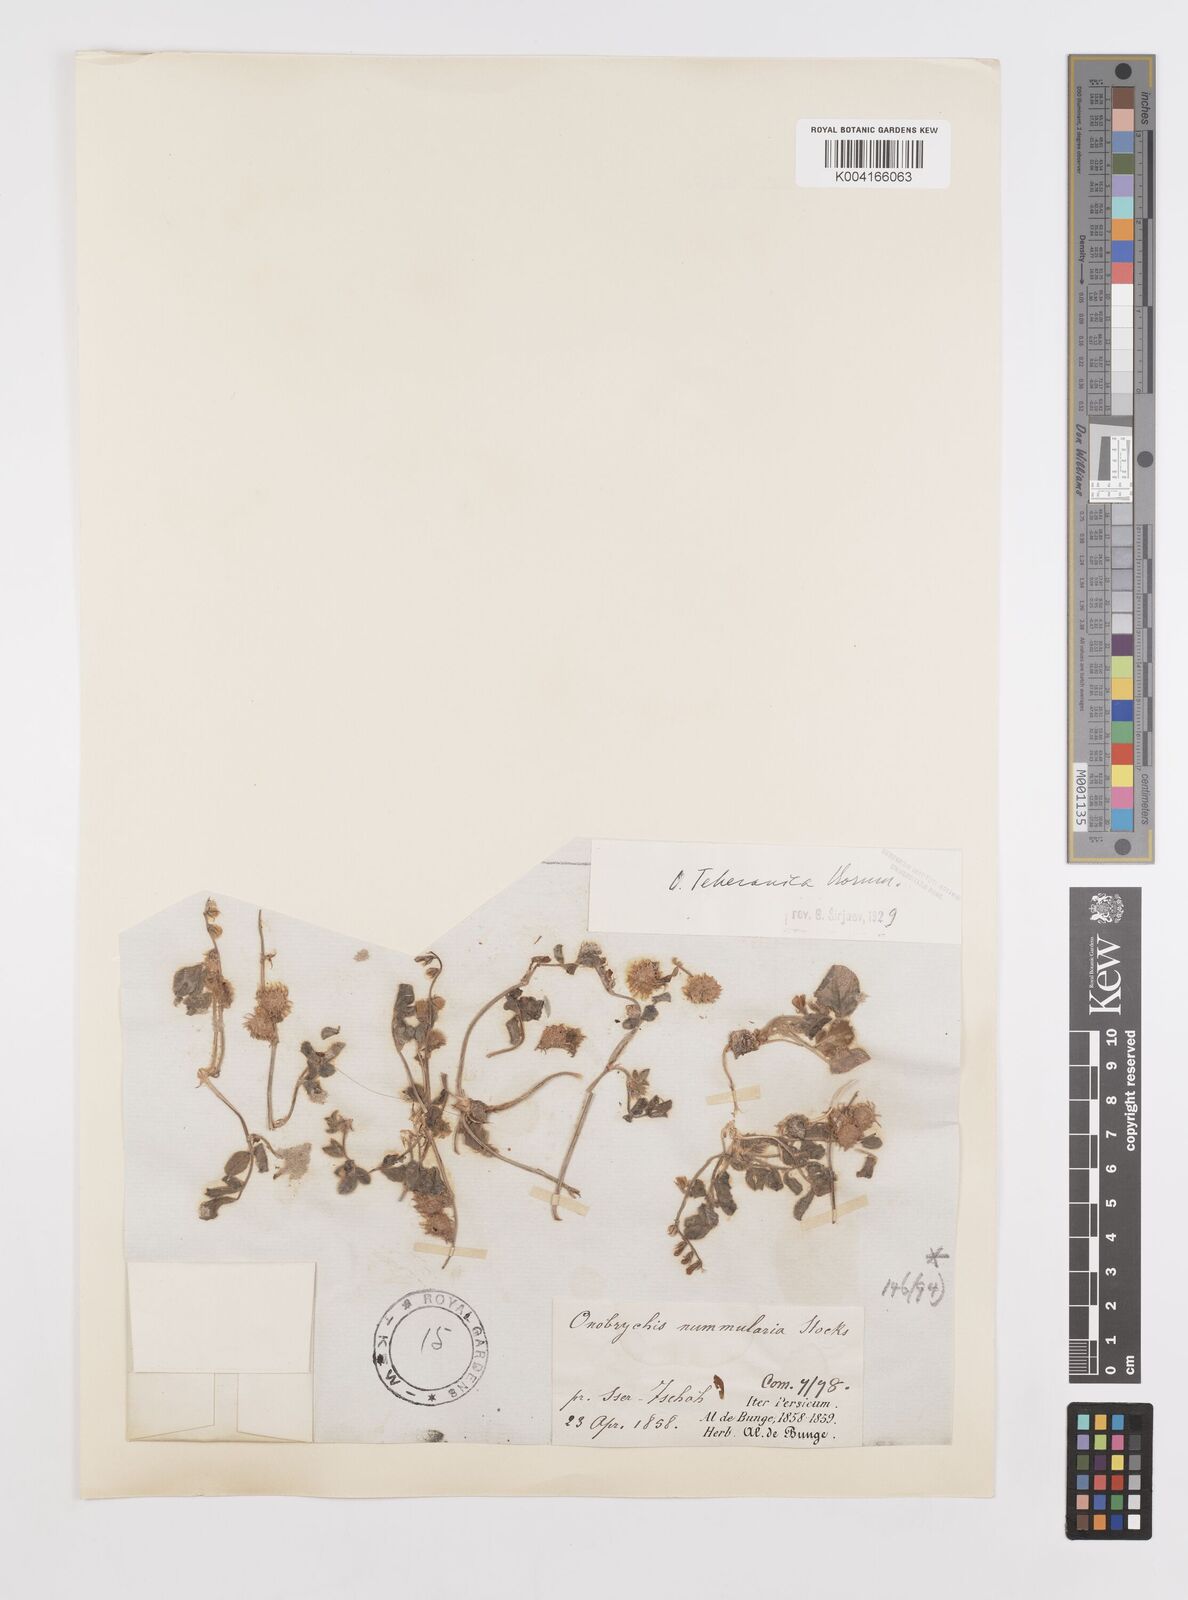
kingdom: Plantae
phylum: Tracheophyta
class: Magnoliopsida
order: Fabales
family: Fabaceae
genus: Onobrychis
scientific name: Onobrychis aucheri
